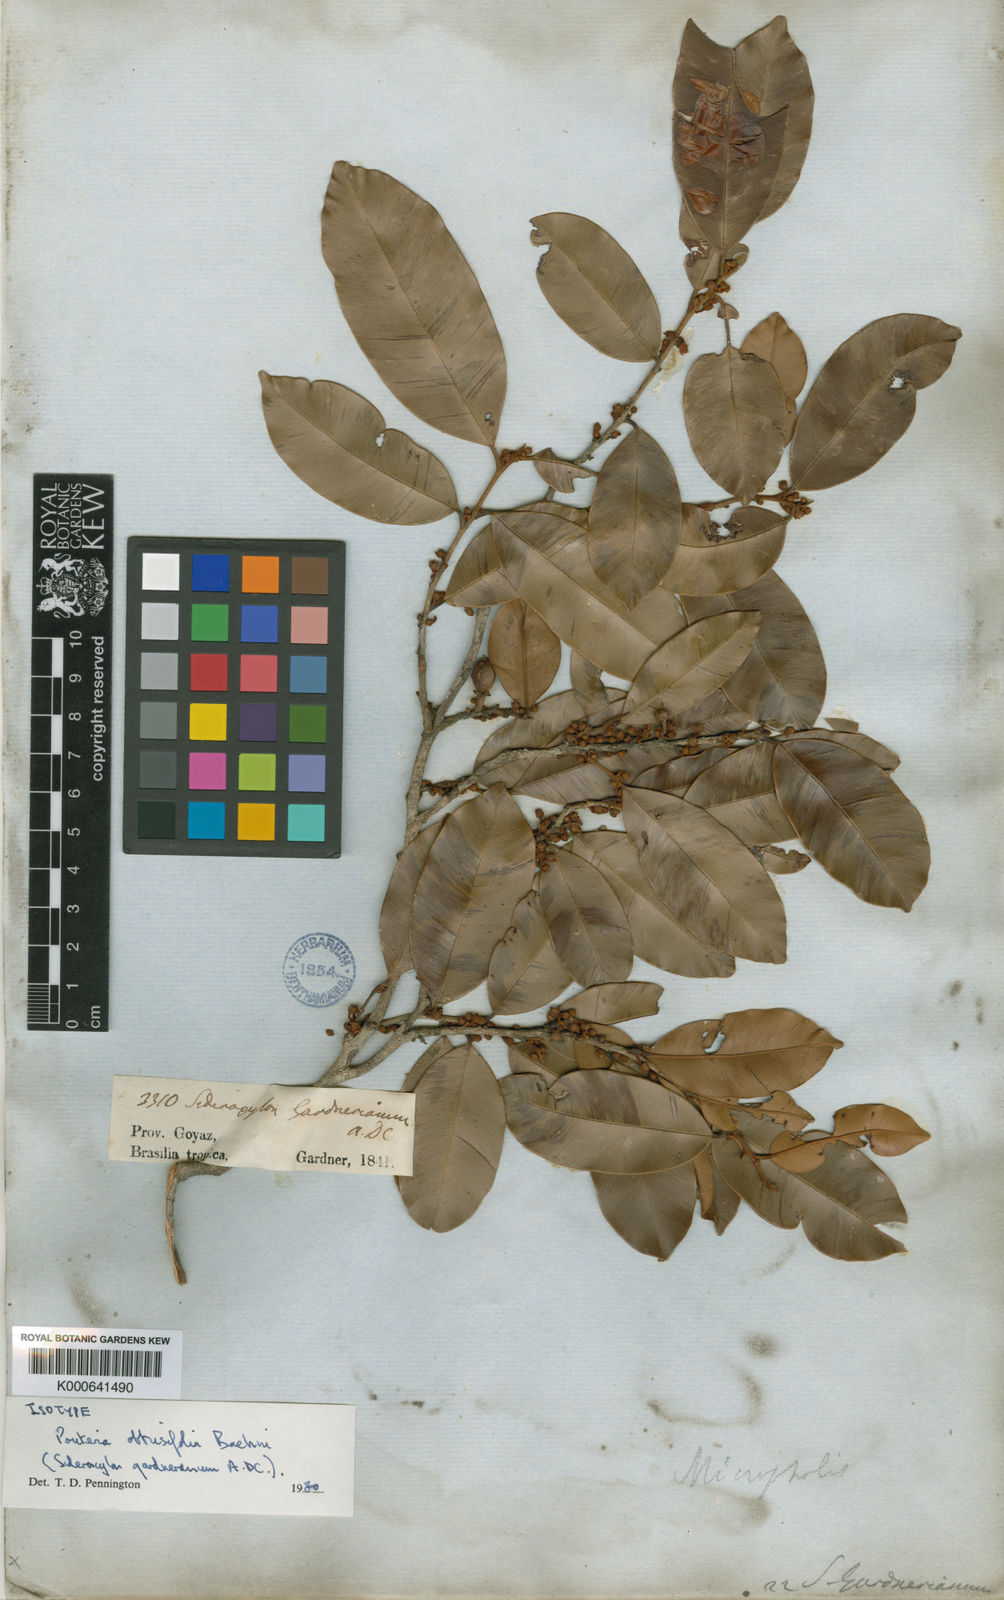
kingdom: Plantae
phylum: Tracheophyta
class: Magnoliopsida
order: Ericales
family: Sapotaceae
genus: Micropholis
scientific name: Micropholis gardneriana
